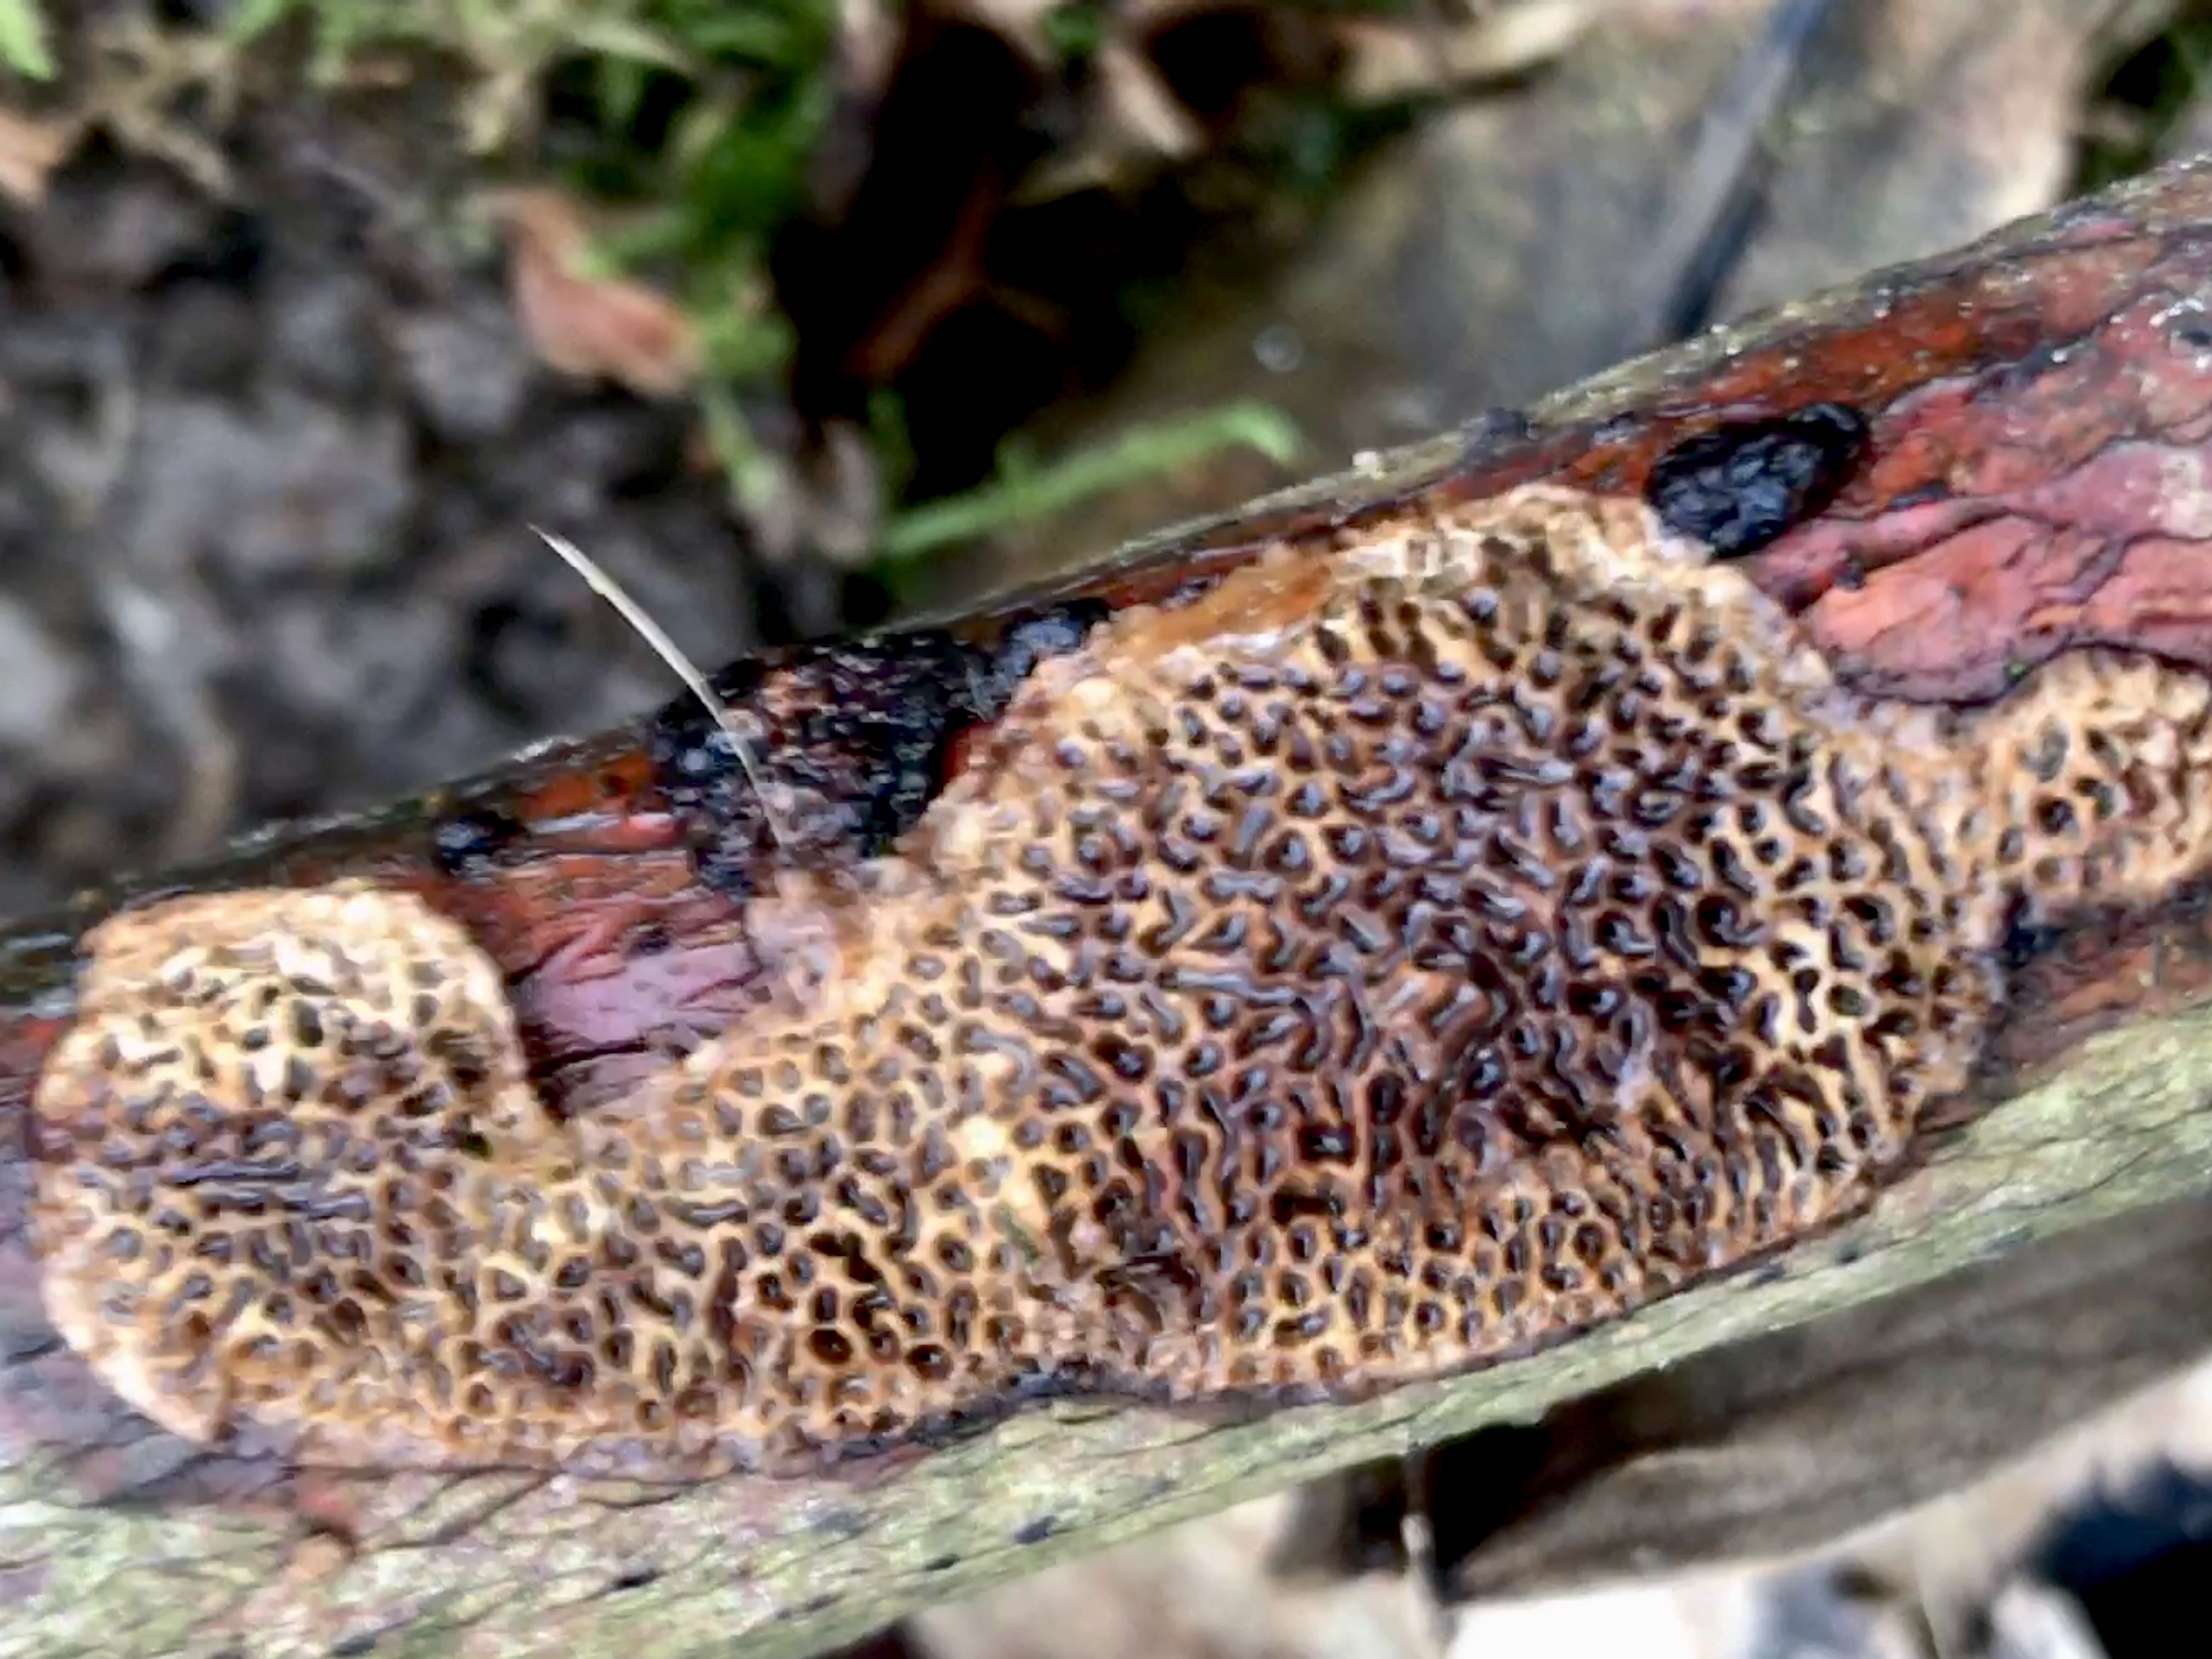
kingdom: Fungi
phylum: Basidiomycota
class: Agaricomycetes
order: Polyporales
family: Polyporaceae
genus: Podofomes
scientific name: Podofomes mollis
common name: blød begporesvamp
